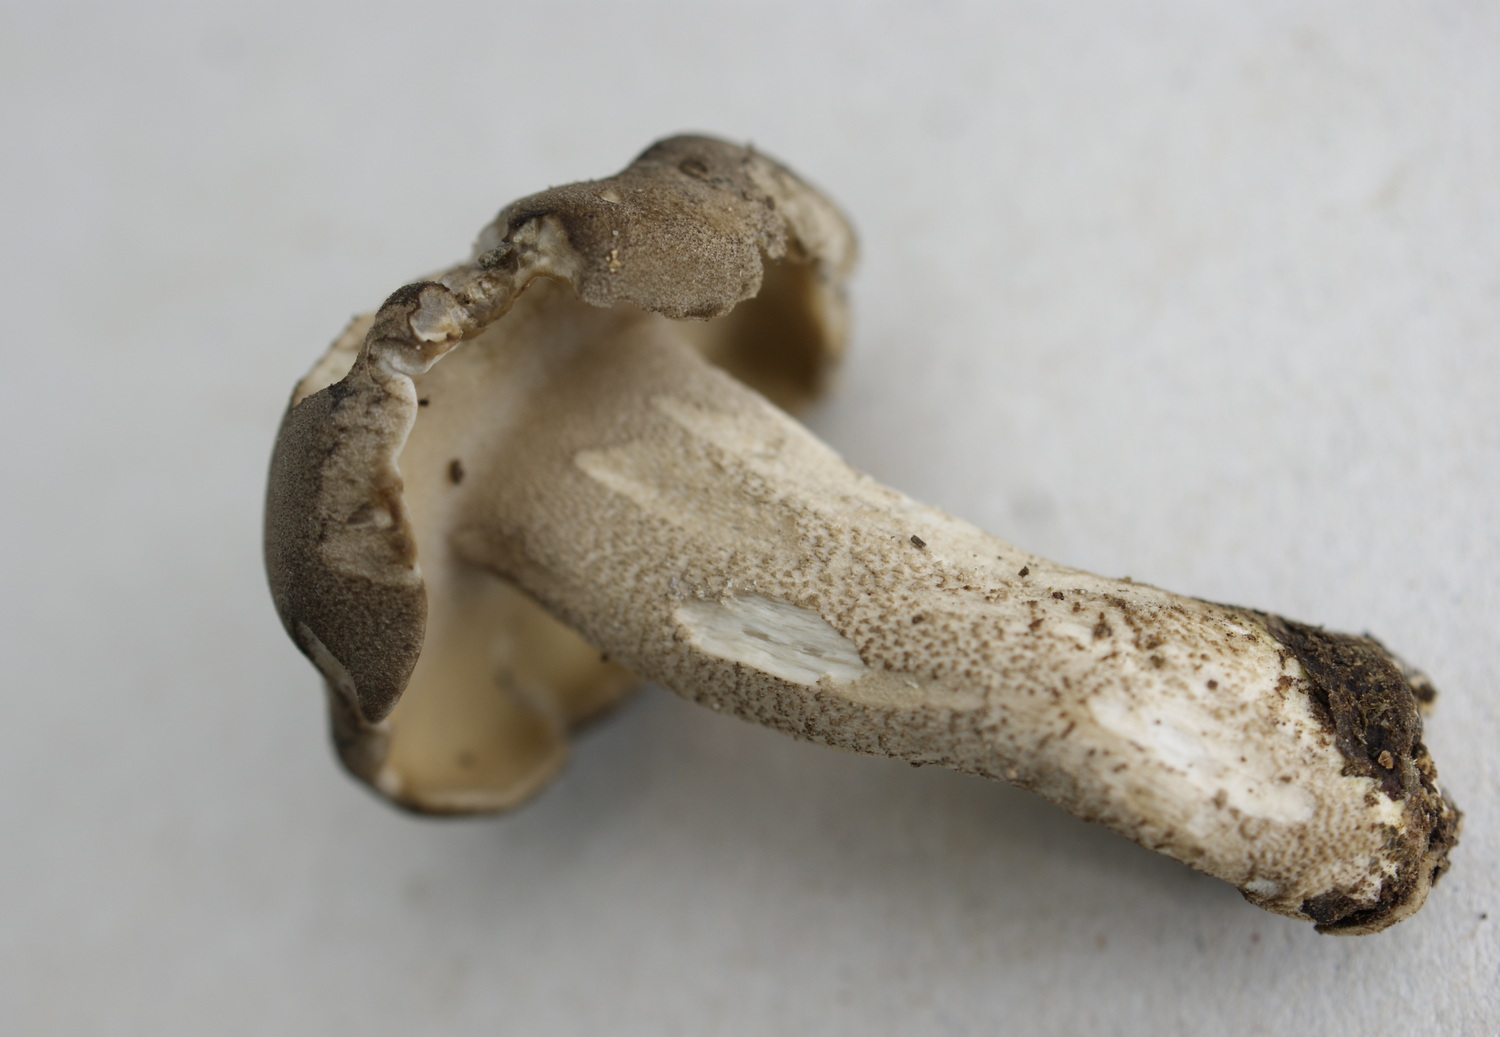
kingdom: Fungi
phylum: Basidiomycota
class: Agaricomycetes
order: Polyporales
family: Polyporaceae
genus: Lentinus
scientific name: Lentinus substrictus
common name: forårs-stilkporesvamp
